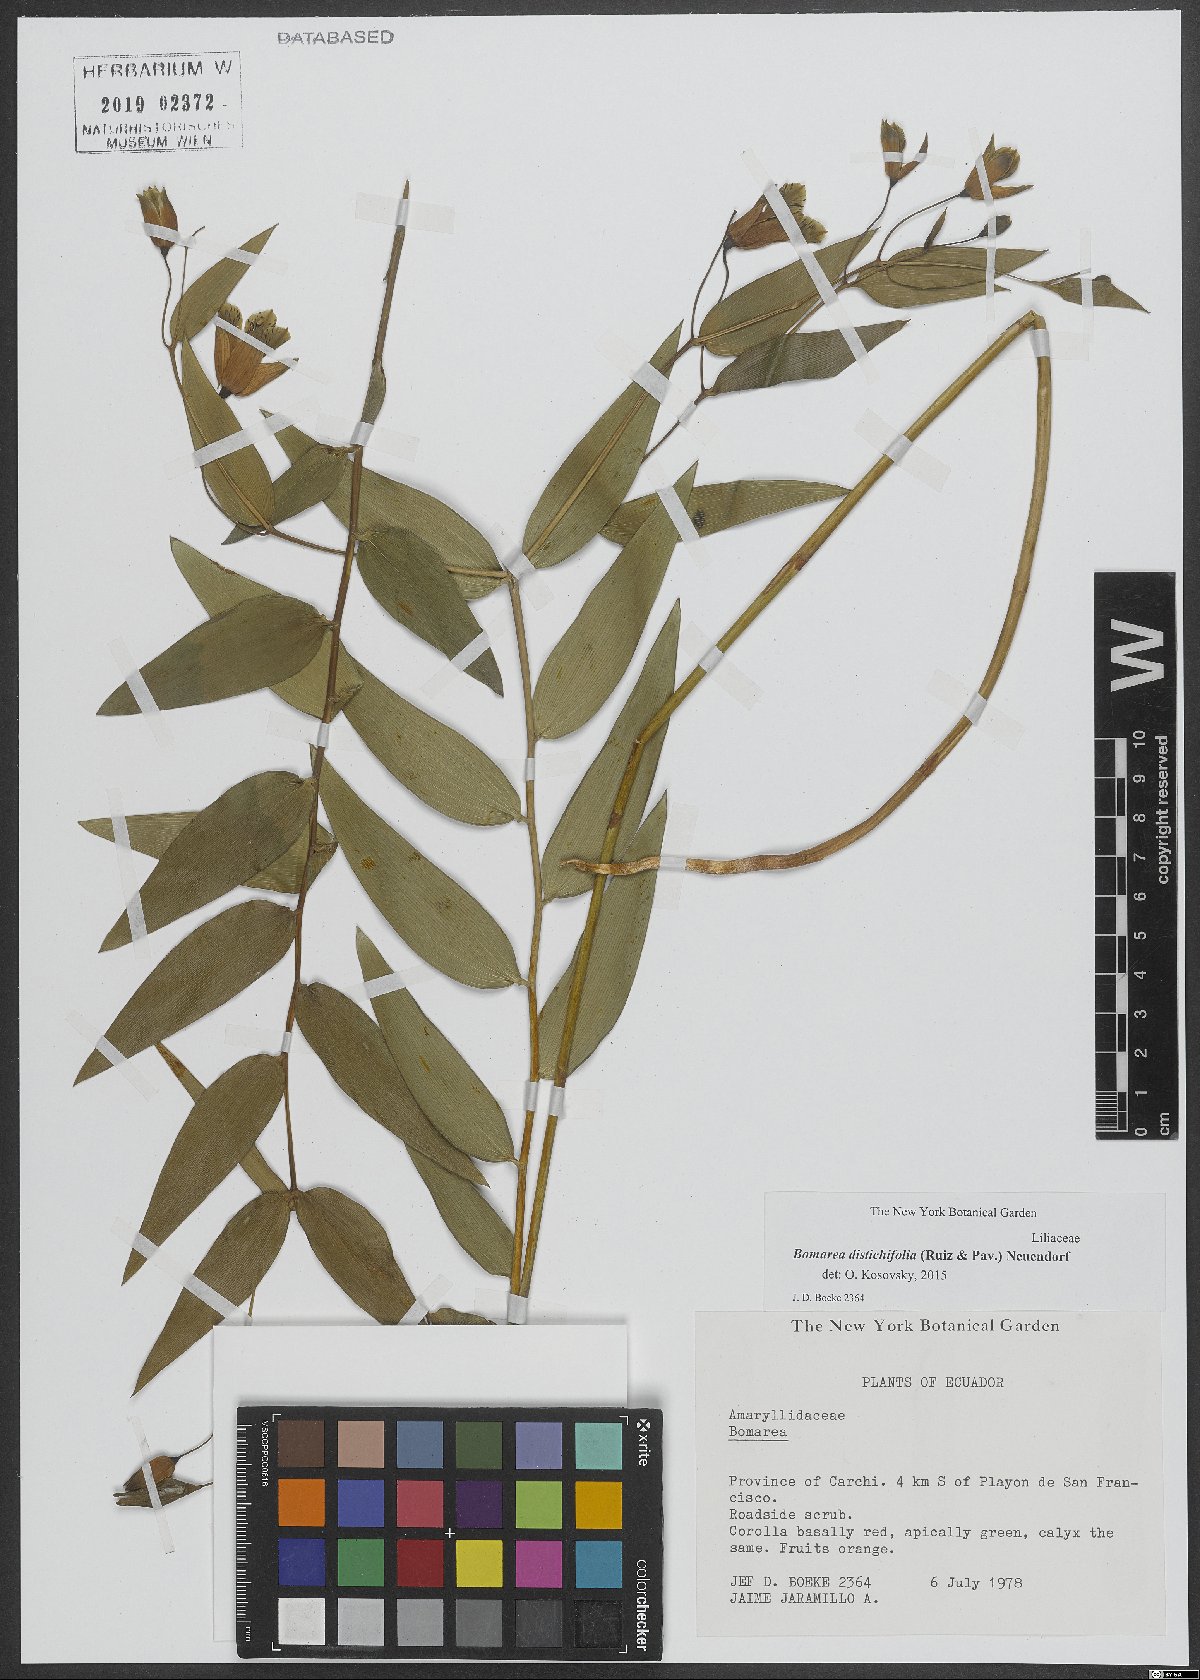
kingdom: Plantae
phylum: Tracheophyta
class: Liliopsida
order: Liliales
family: Alstroemeriaceae
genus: Bomarea
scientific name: Bomarea distichifolia
